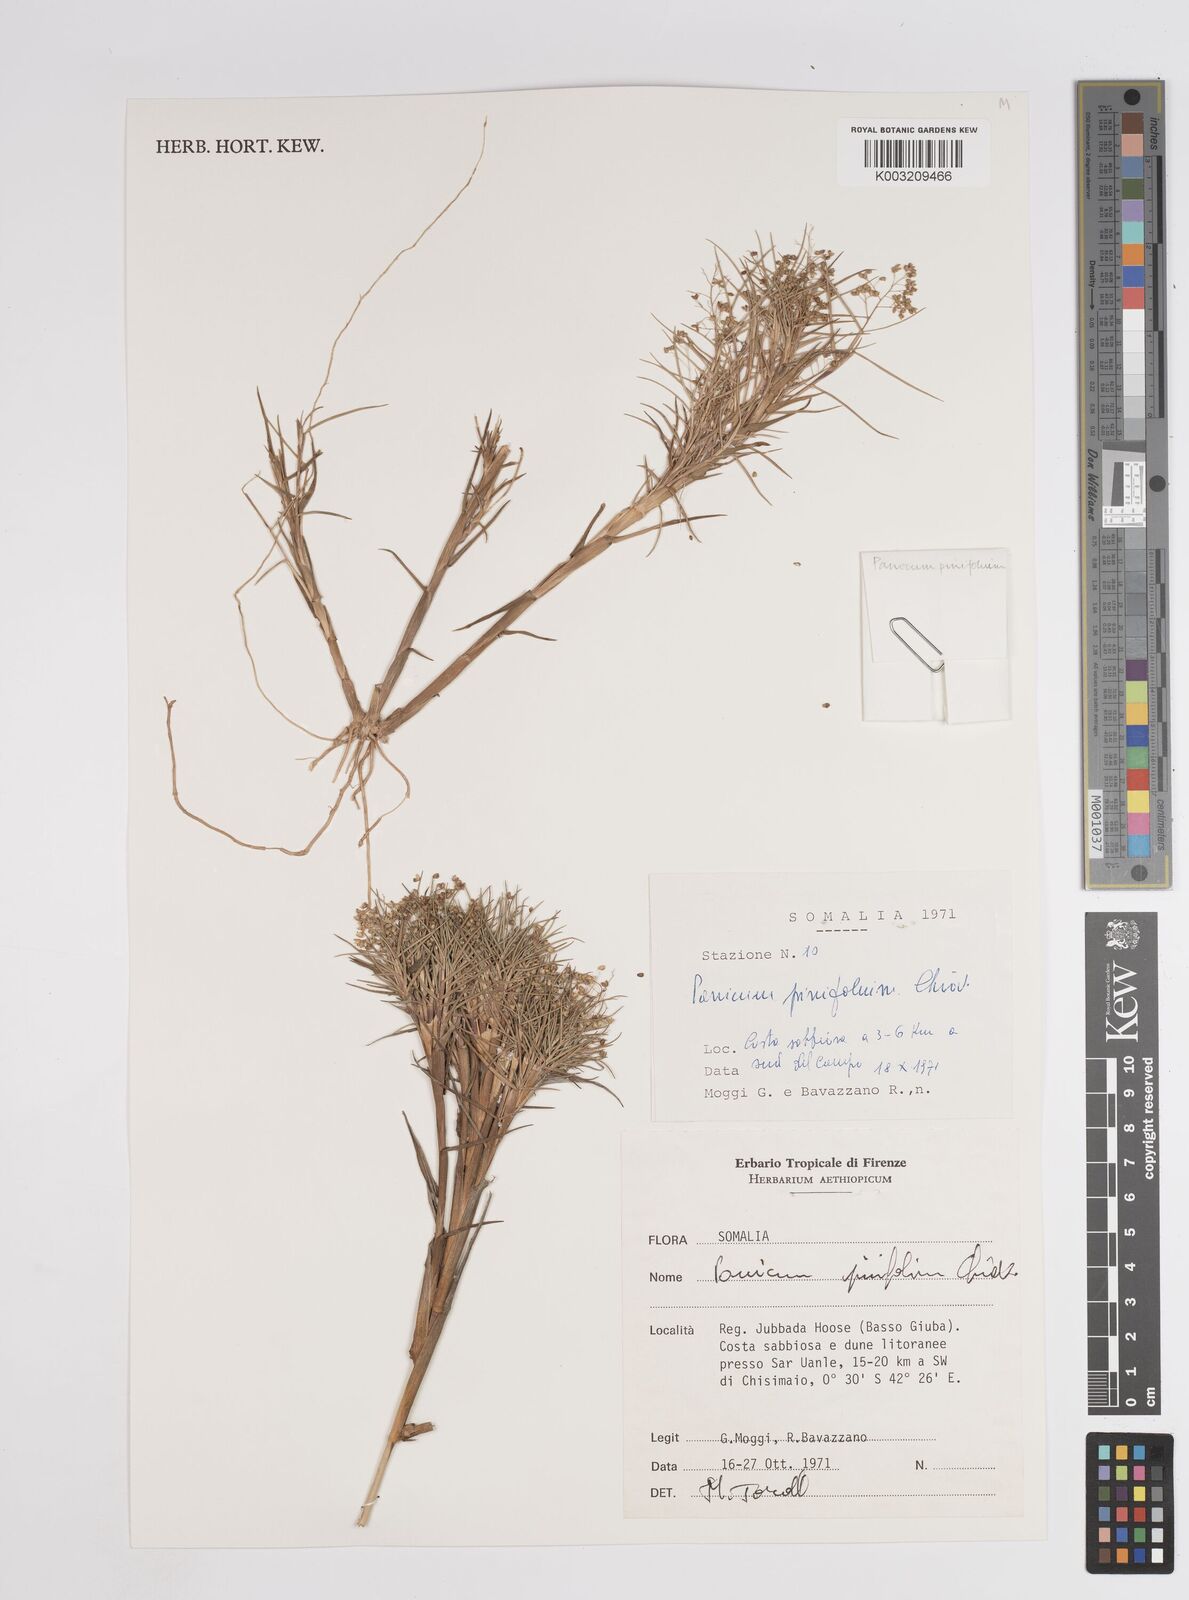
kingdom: Plantae
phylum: Tracheophyta
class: Liliopsida
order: Poales
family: Poaceae
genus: Panicum
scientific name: Panicum pinifolium
